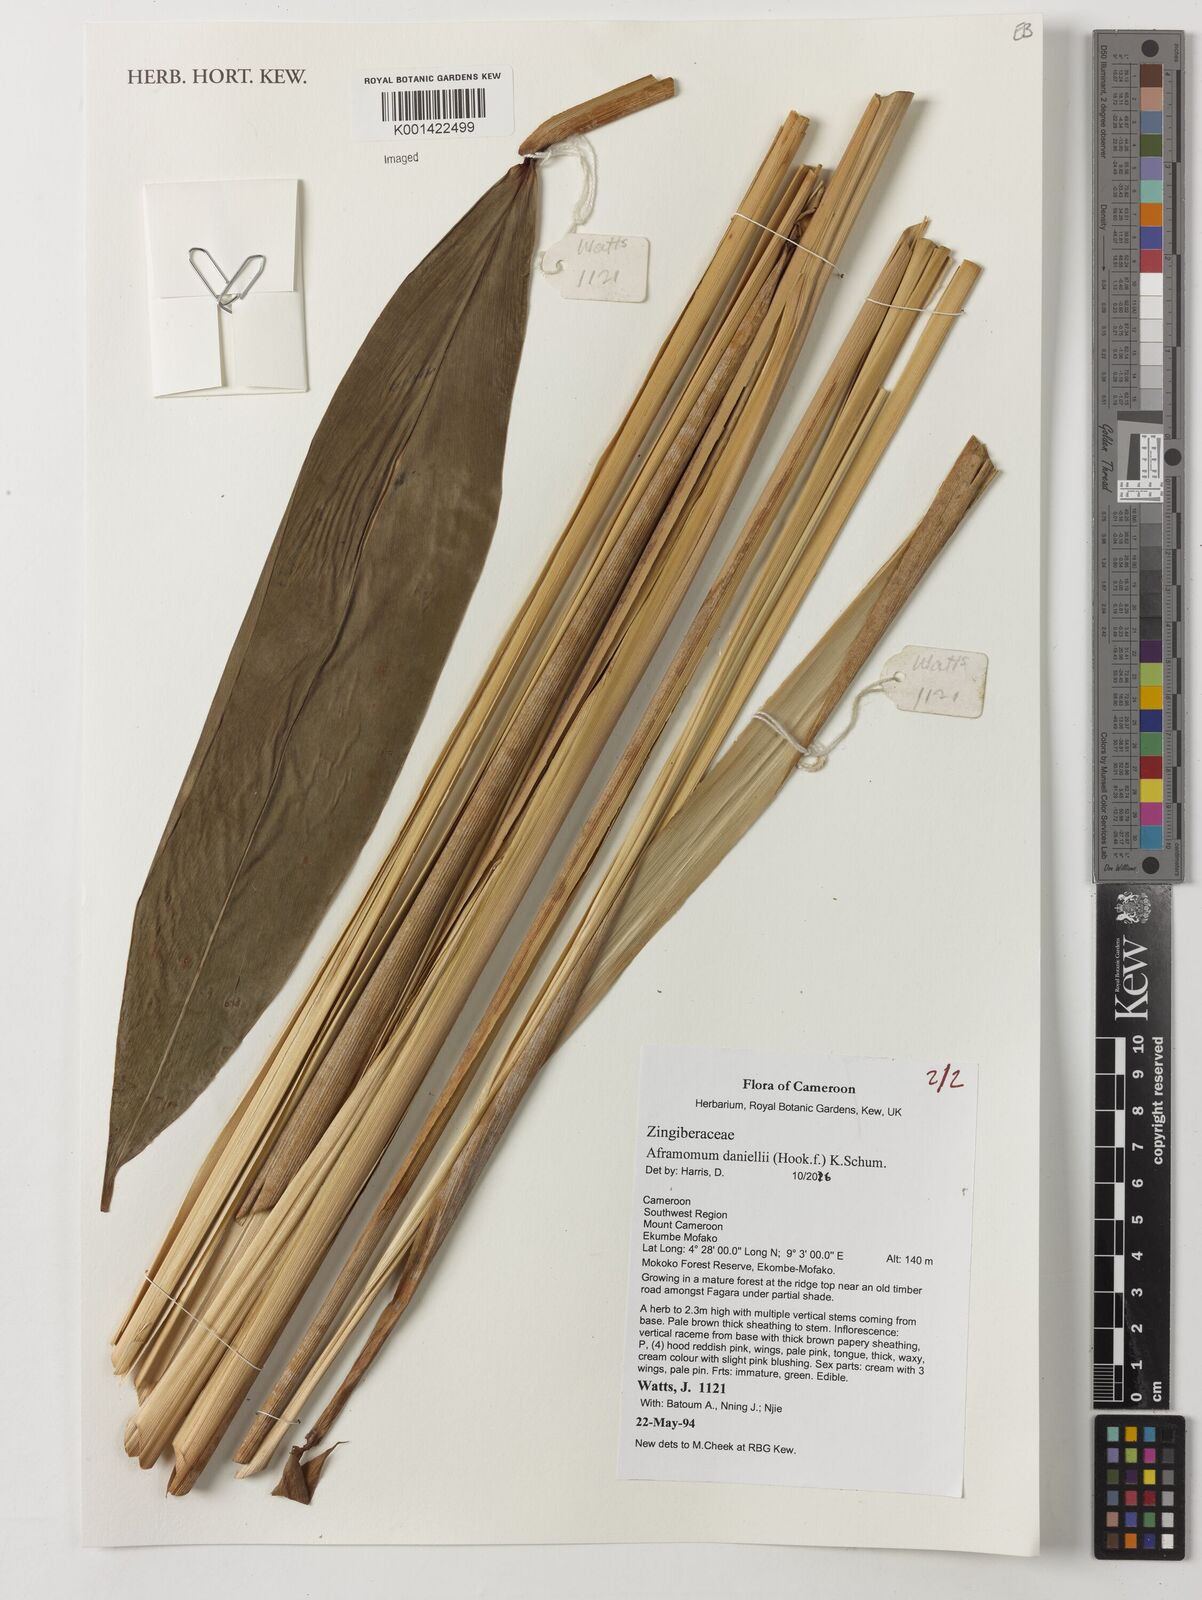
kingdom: Plantae
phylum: Tracheophyta
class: Liliopsida
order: Zingiberales
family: Zingiberaceae
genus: Aframomum
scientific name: Aframomum daniellii
